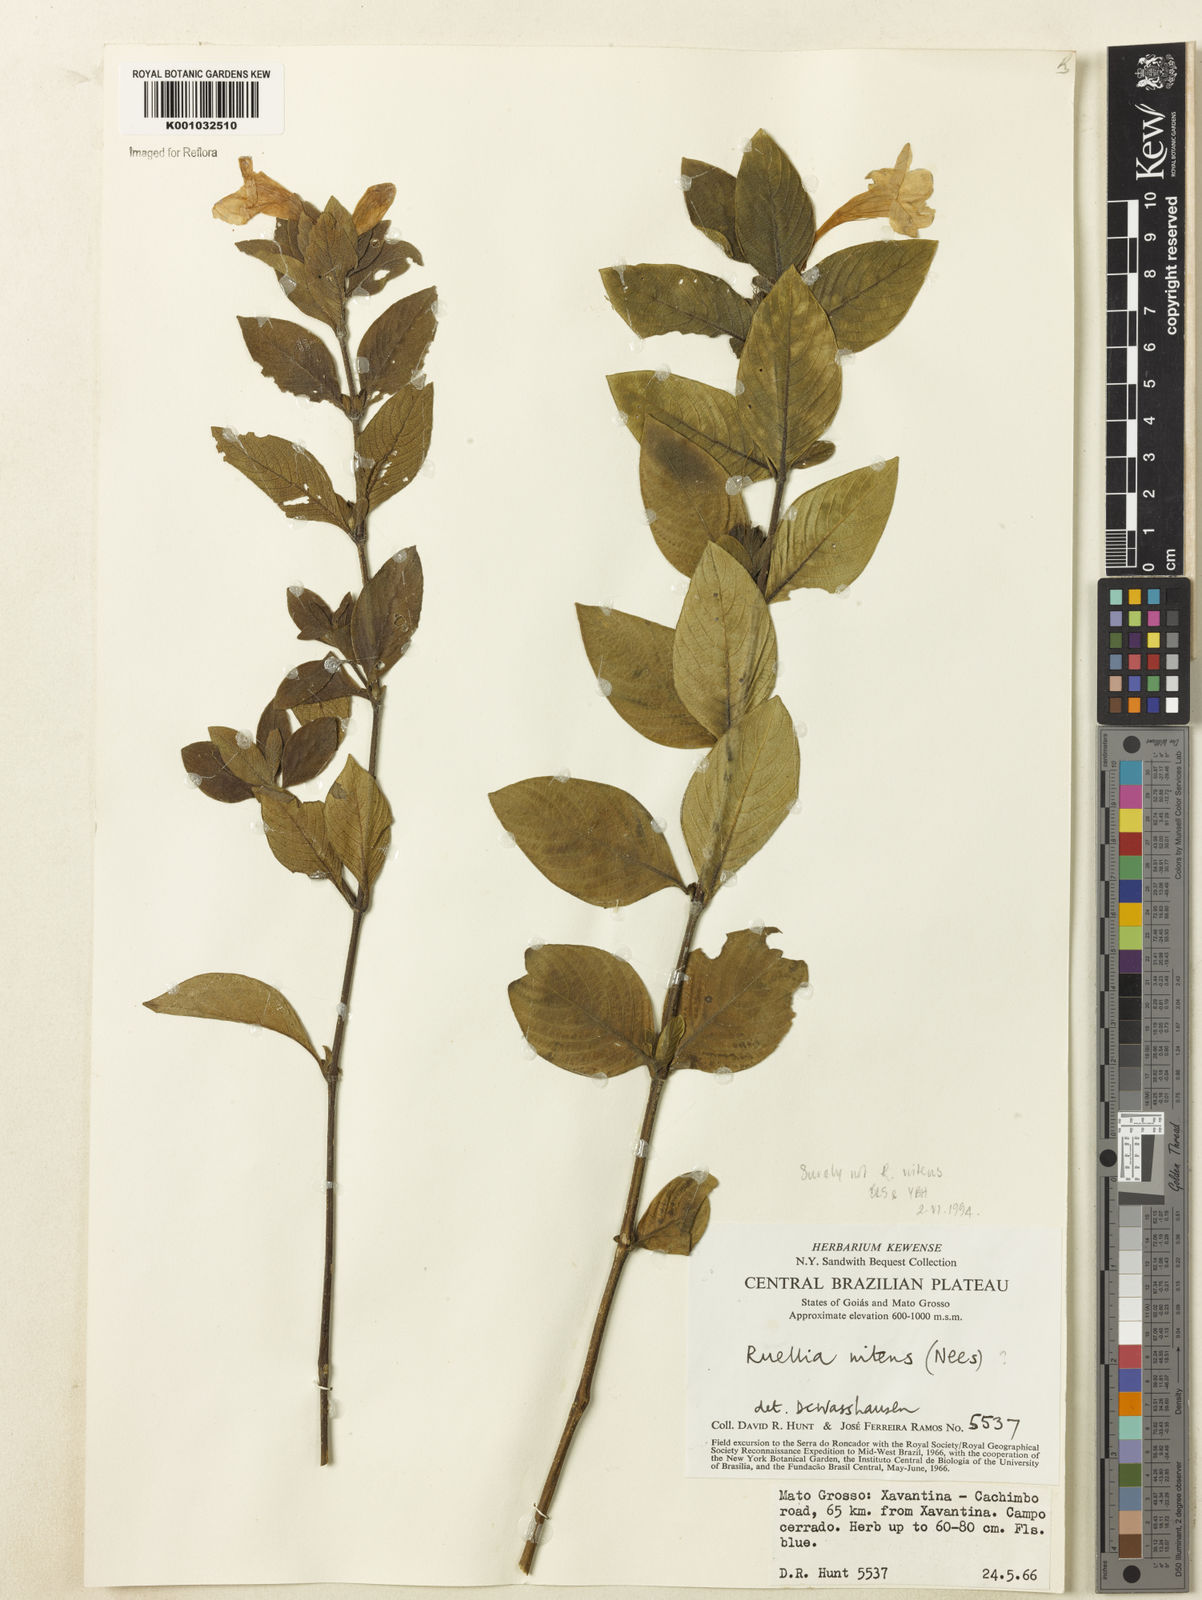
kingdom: Plantae
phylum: Tracheophyta
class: Magnoliopsida
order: Lamiales
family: Acanthaceae
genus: Ruellia
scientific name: Ruellia nitens
